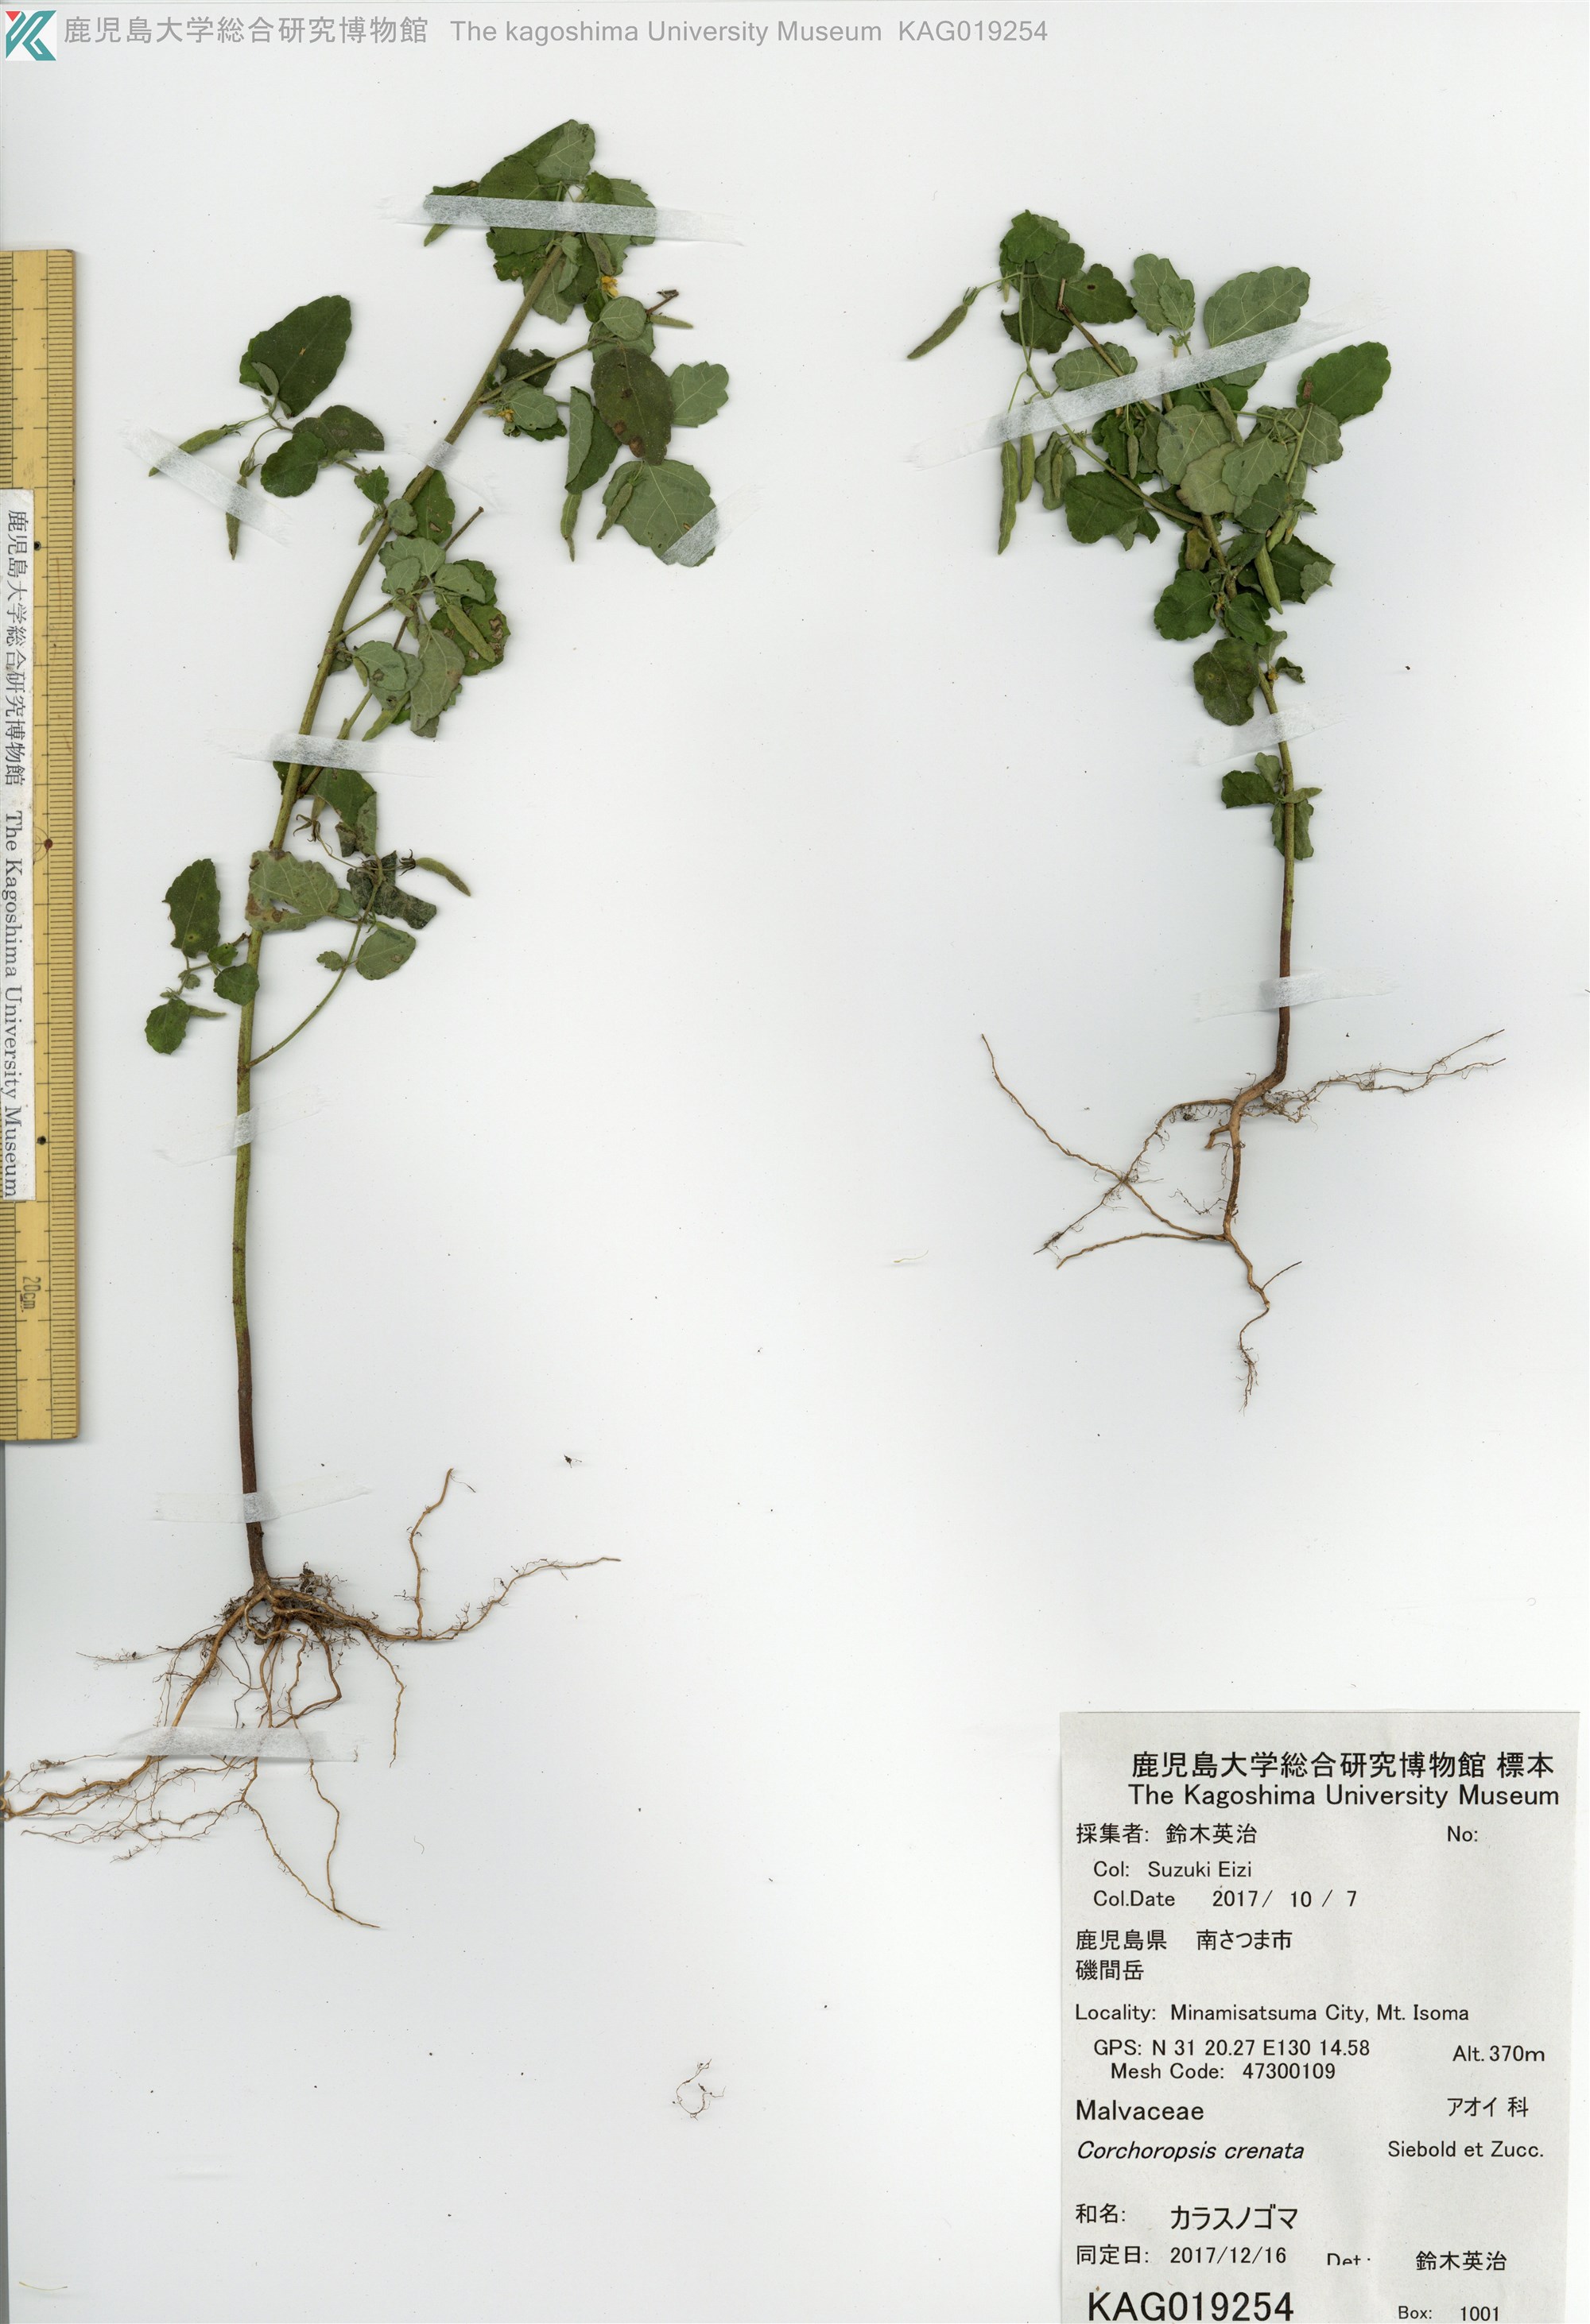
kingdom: Plantae
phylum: Tracheophyta
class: Magnoliopsida
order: Malvales
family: Malvaceae
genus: Corchoropsis
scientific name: Corchoropsis crenata
